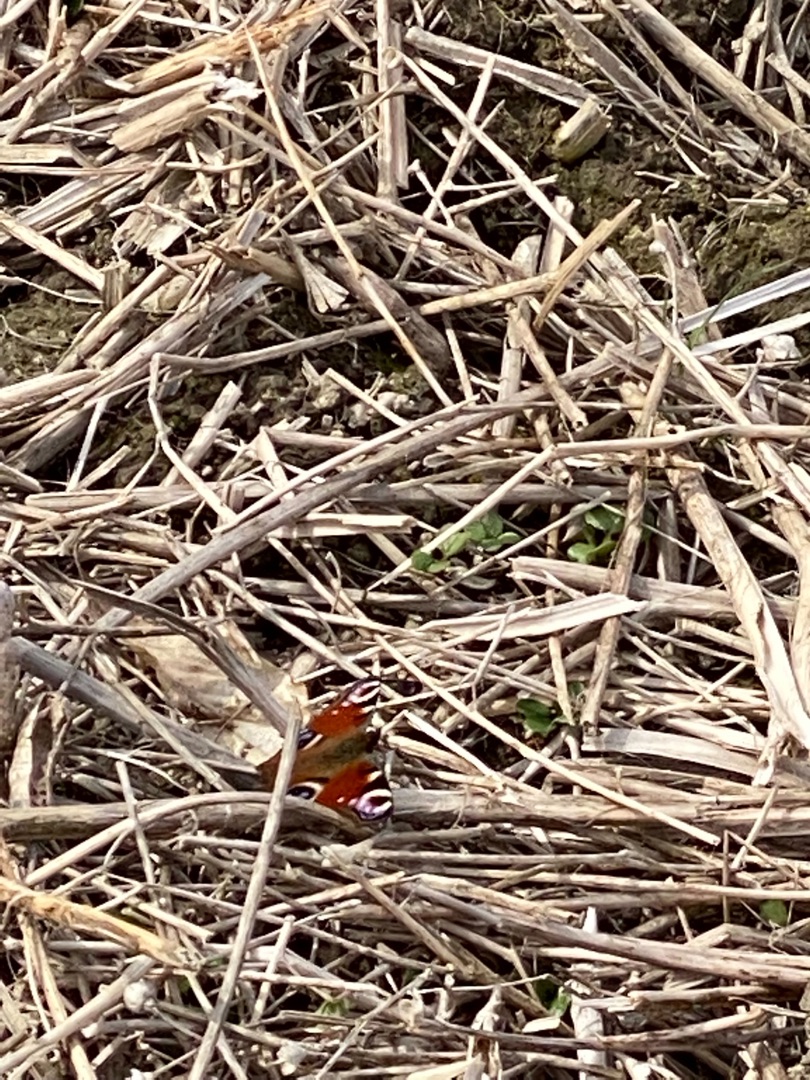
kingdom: Animalia
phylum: Arthropoda
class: Insecta
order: Lepidoptera
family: Nymphalidae
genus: Aglais
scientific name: Aglais io
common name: Dagpåfugleøje
